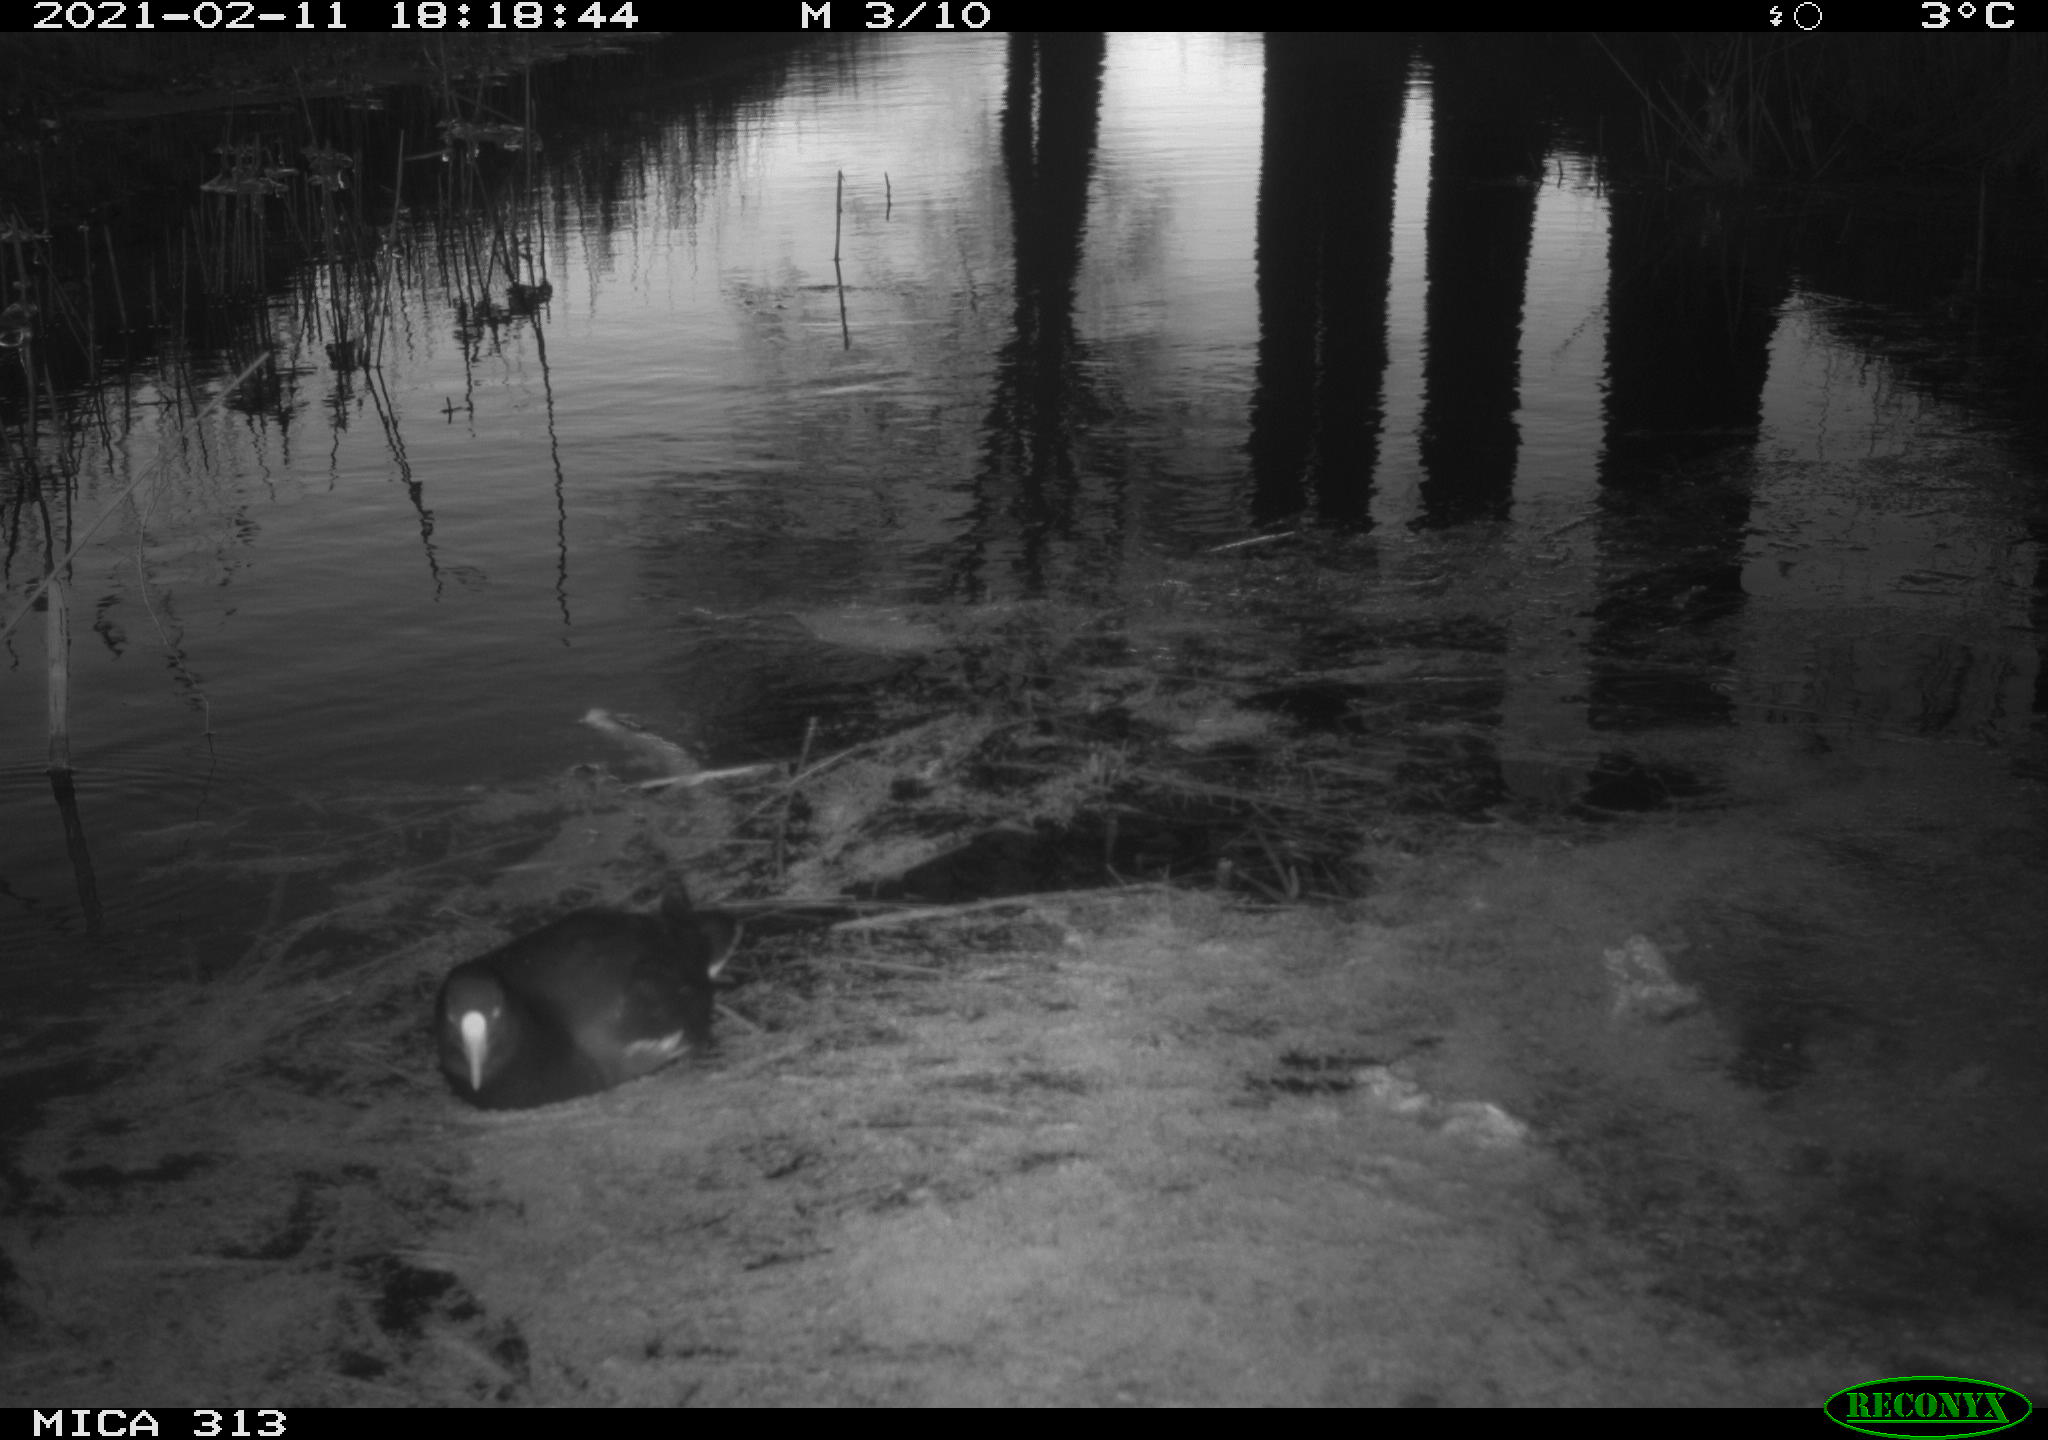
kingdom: Animalia
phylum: Chordata
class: Aves
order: Gruiformes
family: Rallidae
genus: Fulica
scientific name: Fulica atra
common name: Eurasian coot
